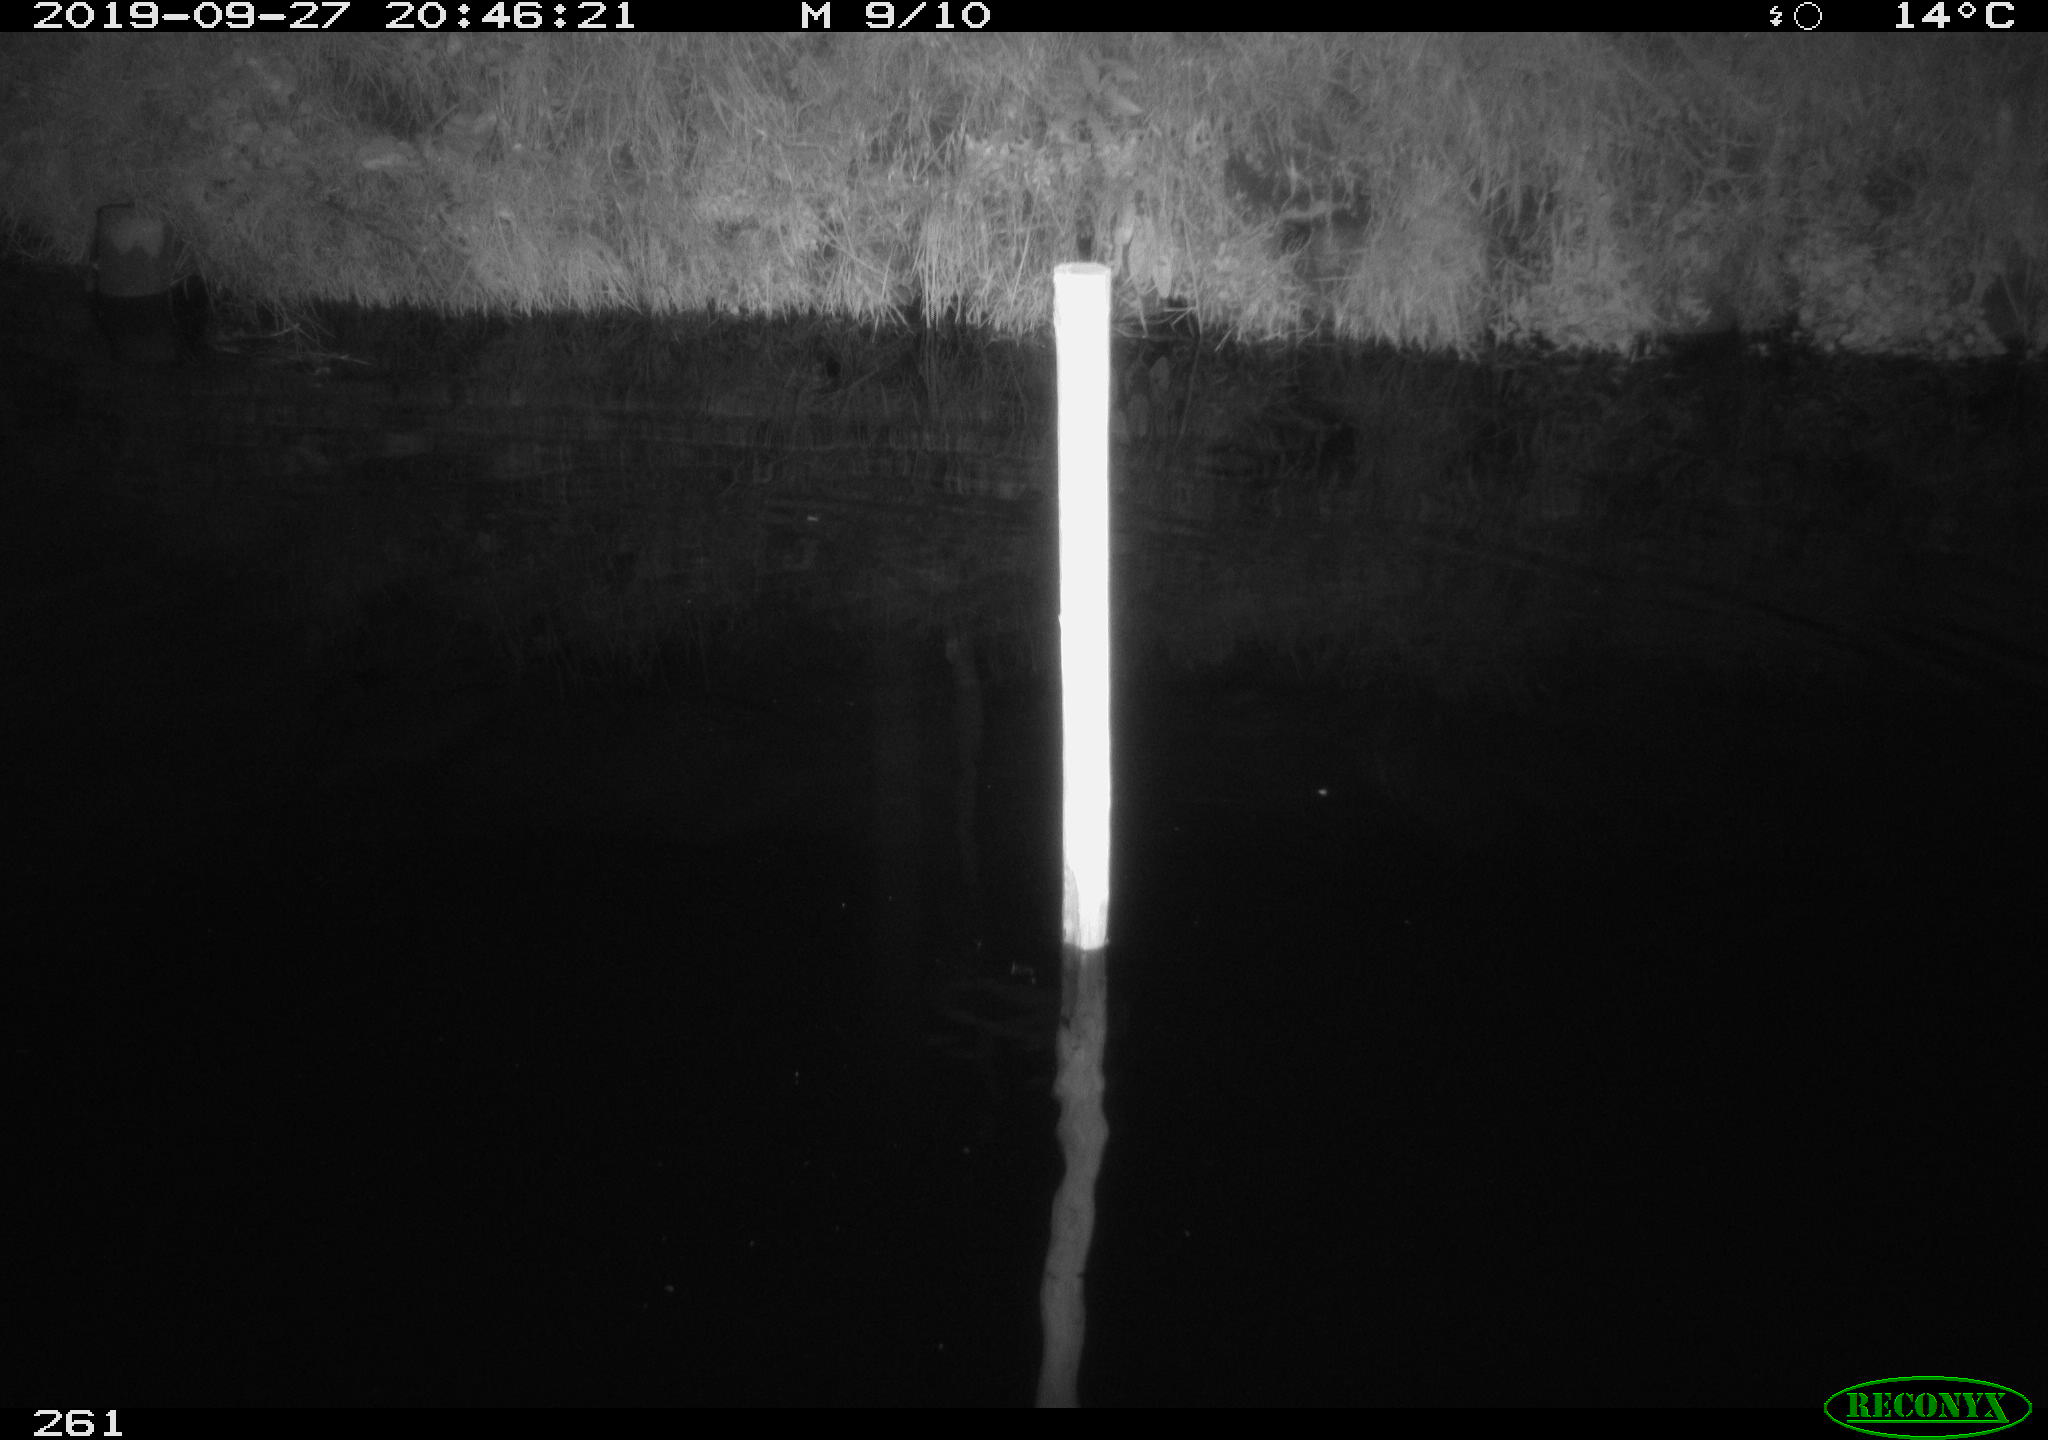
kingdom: Animalia
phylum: Chordata
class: Aves
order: Anseriformes
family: Anatidae
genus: Anas
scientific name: Anas platyrhynchos
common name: Mallard
